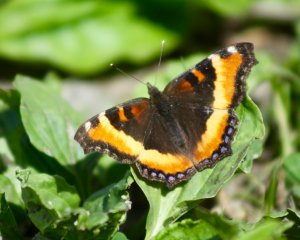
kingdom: Animalia
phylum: Arthropoda
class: Insecta
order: Lepidoptera
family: Nymphalidae
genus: Aglais
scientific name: Aglais milberti
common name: Milbert's Tortoiseshell
